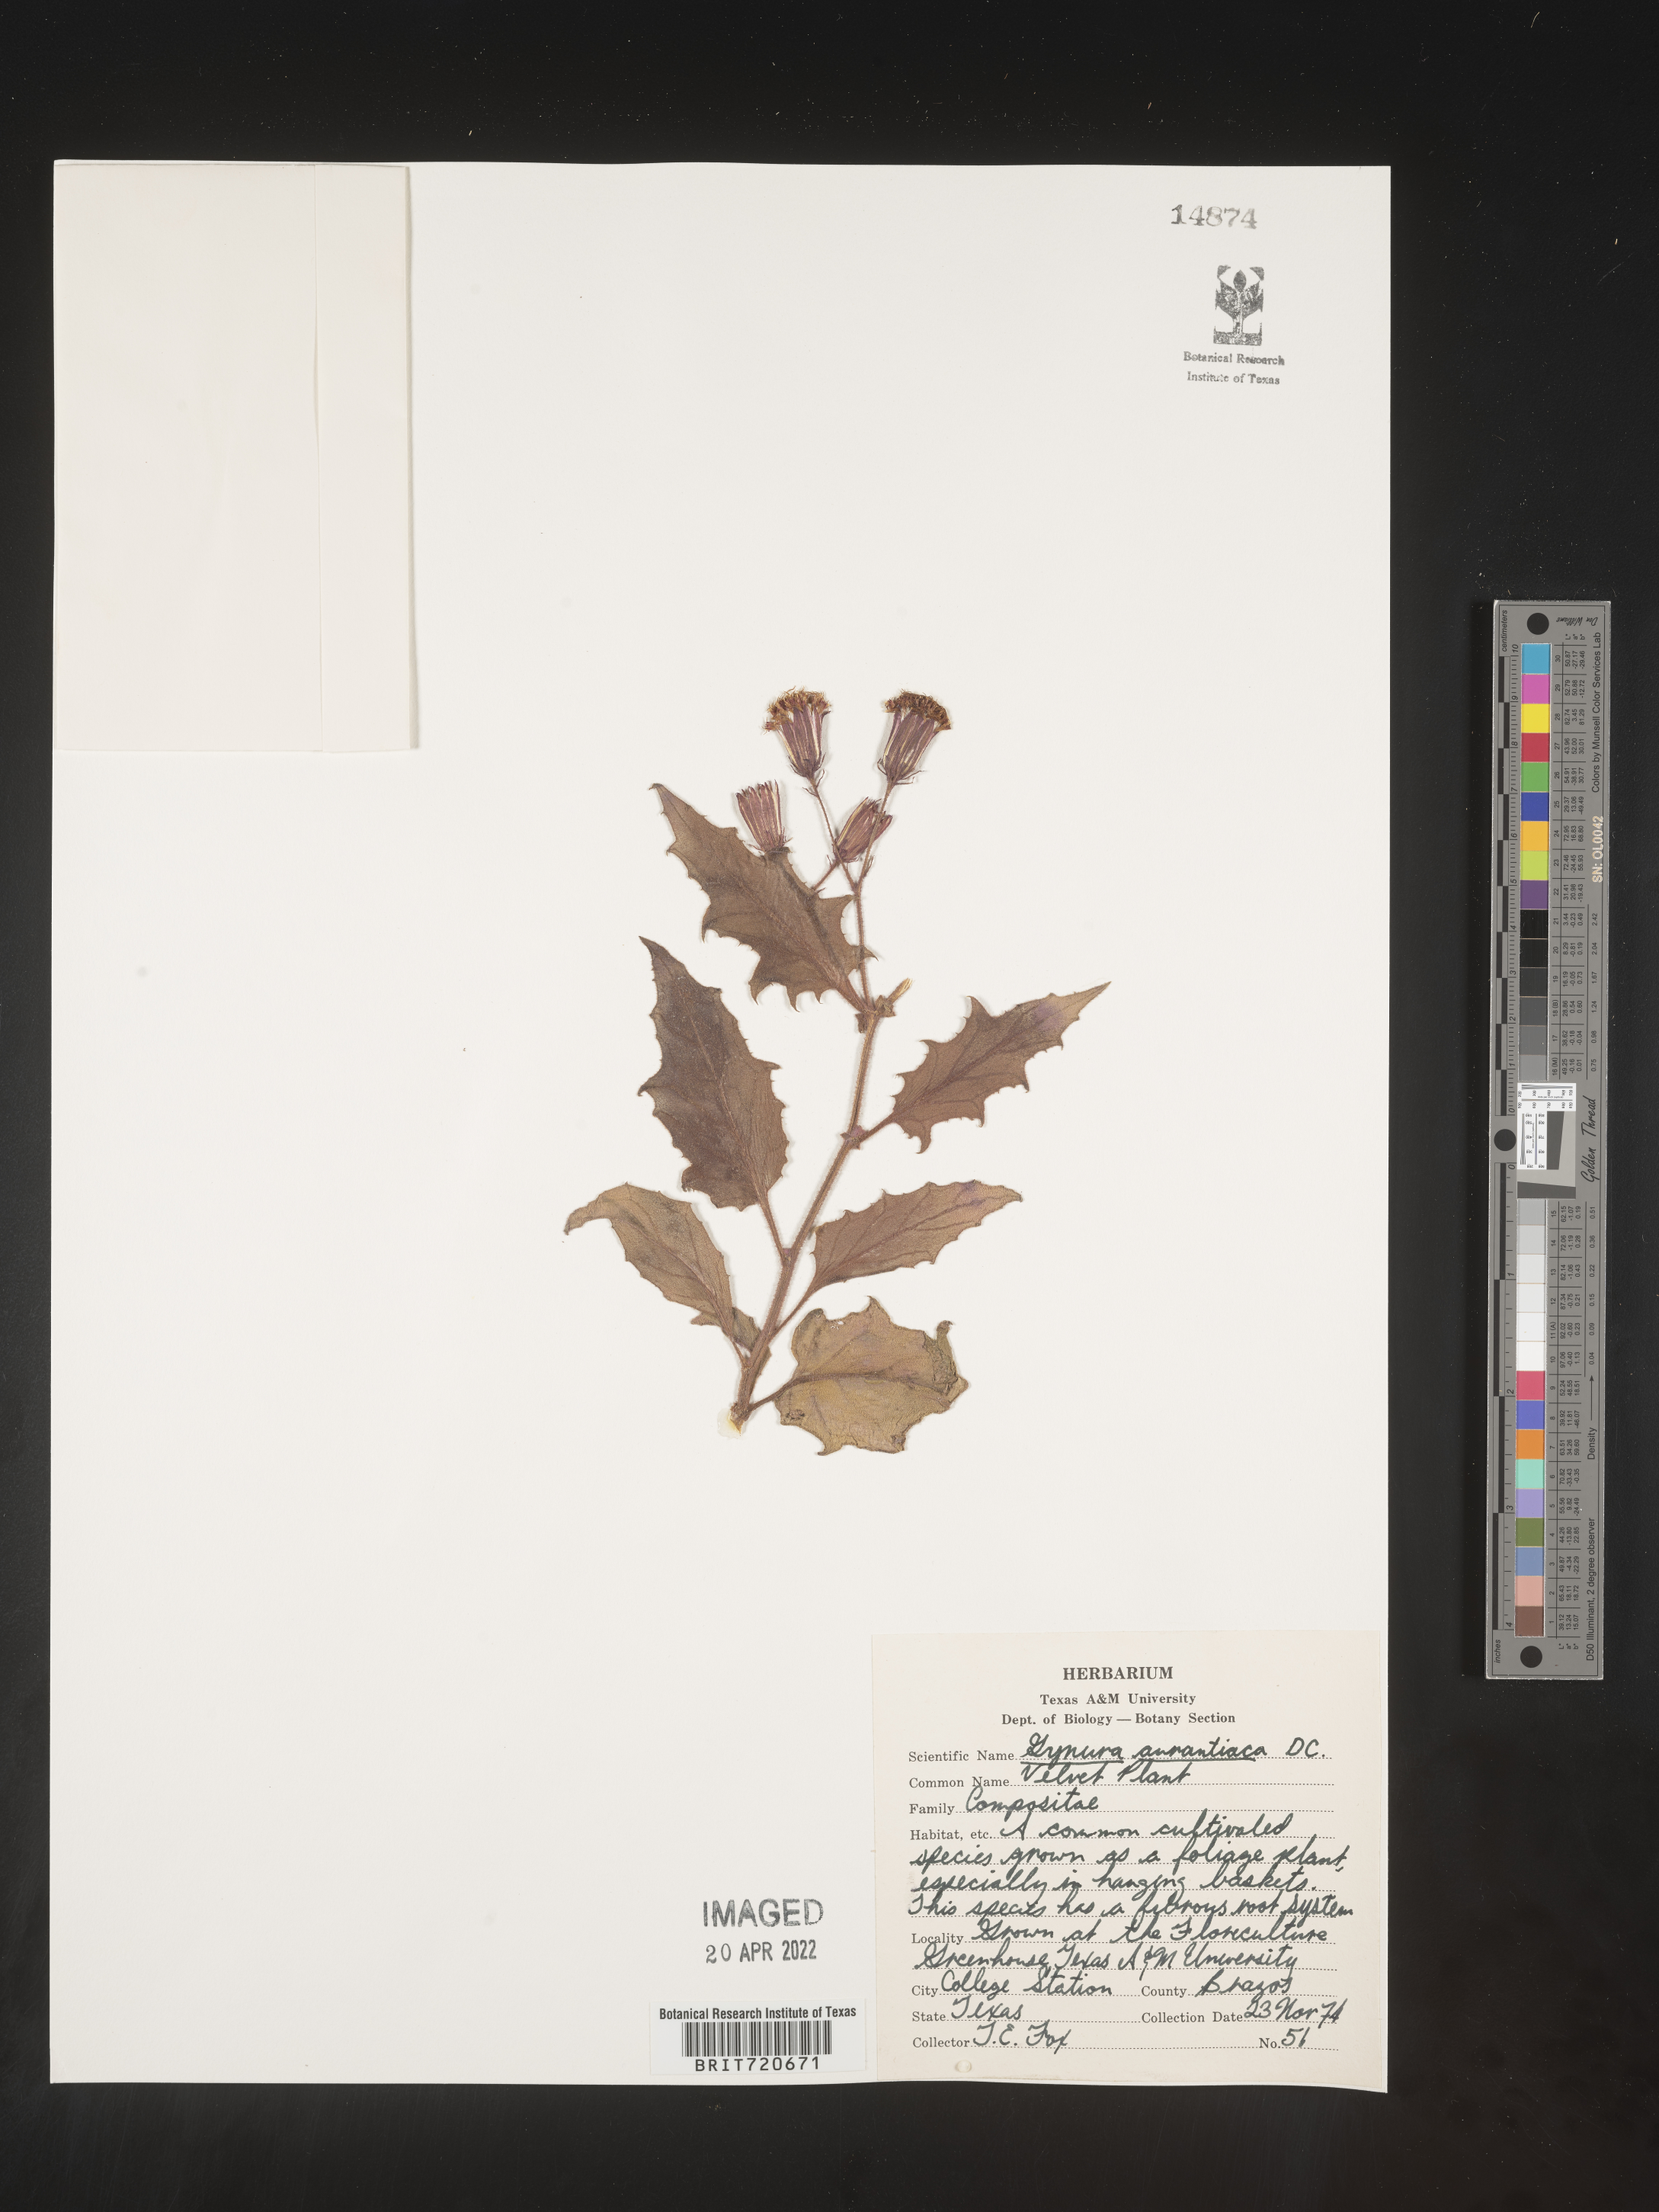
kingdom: Plantae
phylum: Tracheophyta
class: Magnoliopsida
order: Asterales
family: Asteraceae
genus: Gynura
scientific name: Gynura
